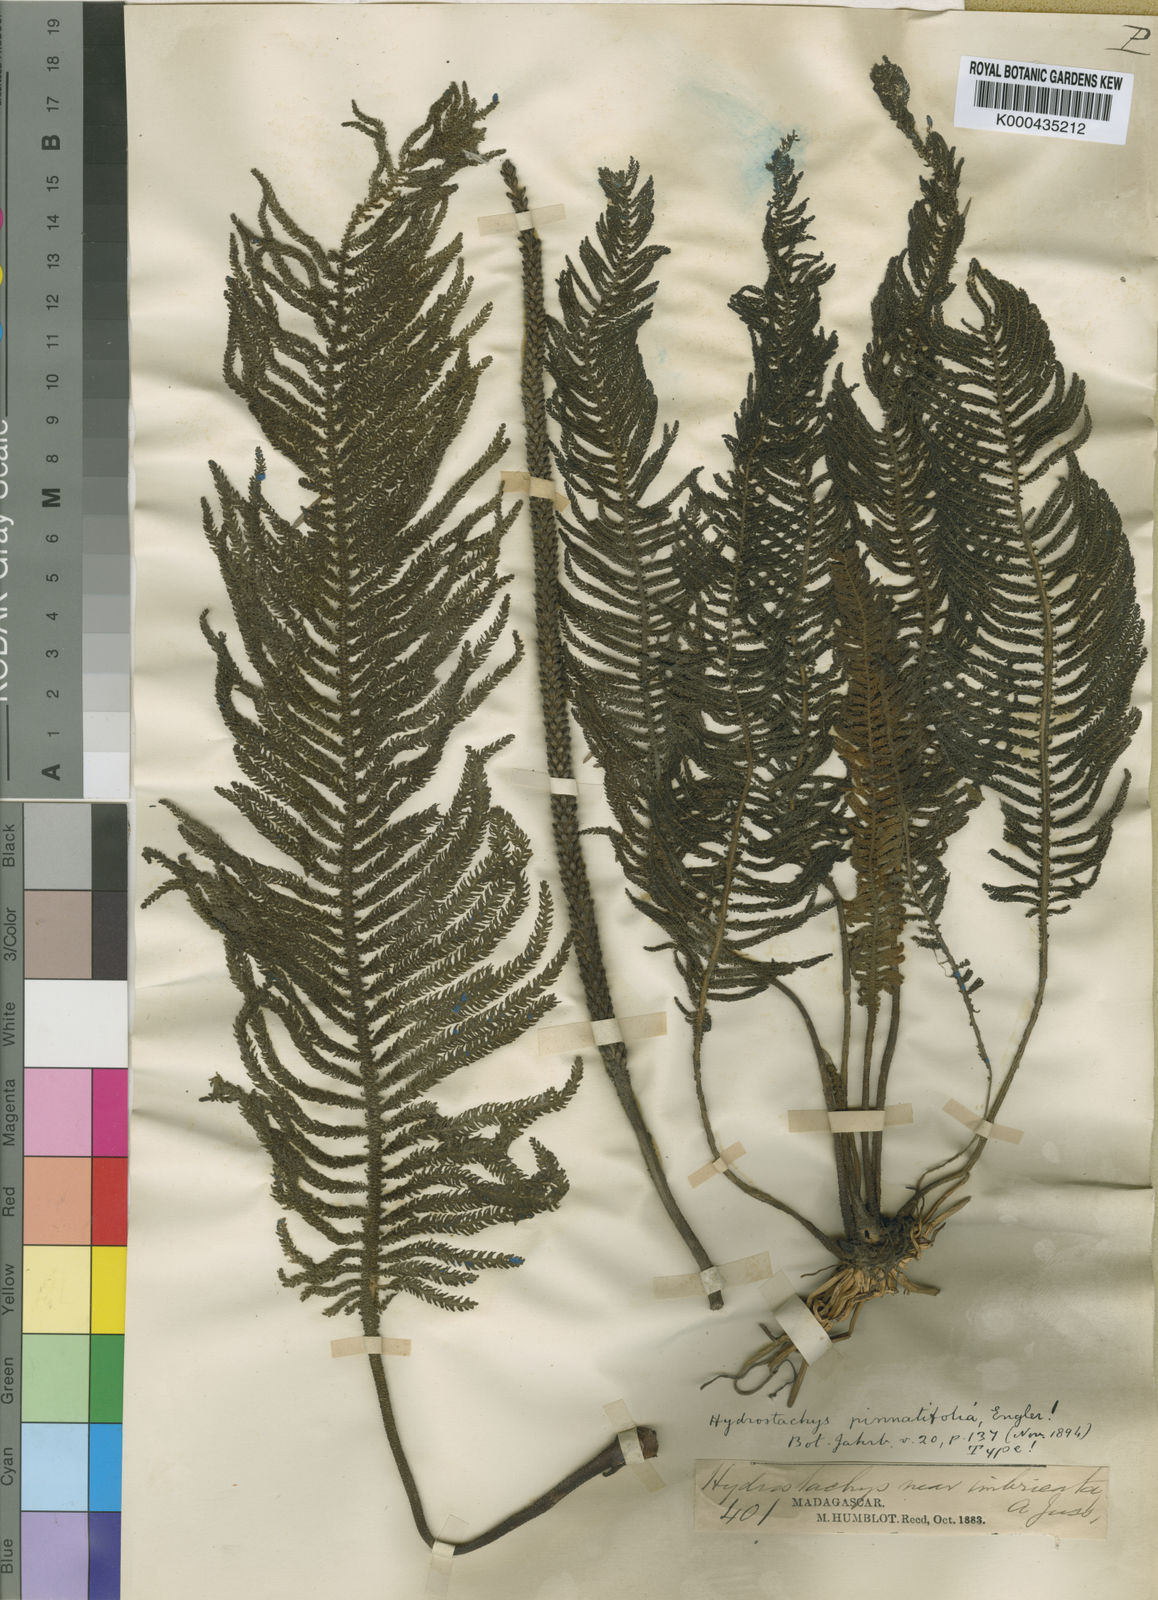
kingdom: Plantae
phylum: Tracheophyta
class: Magnoliopsida
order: Cornales
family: Hydrostachyaceae
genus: Hydrostachys
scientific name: Hydrostachys plumosa
